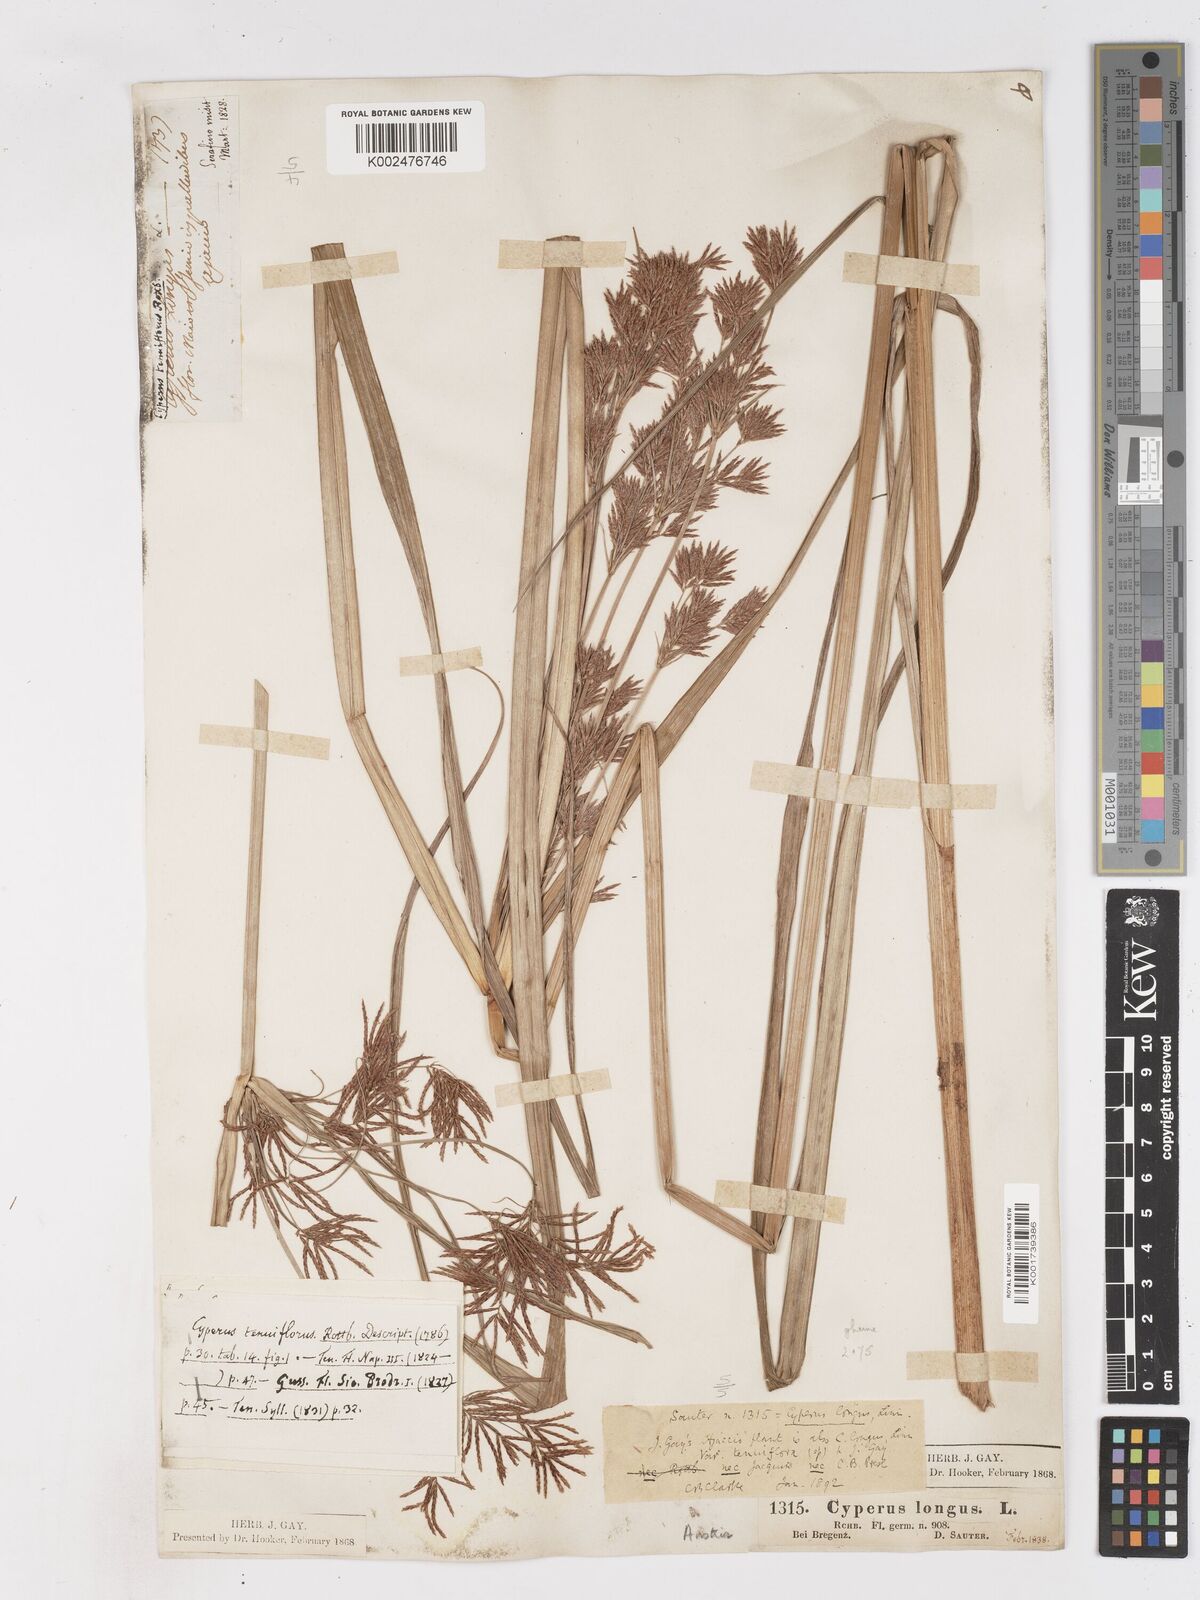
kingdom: Plantae
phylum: Tracheophyta
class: Liliopsida
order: Poales
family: Cyperaceae
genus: Cyperus
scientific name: Cyperus longus
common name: Galingale
